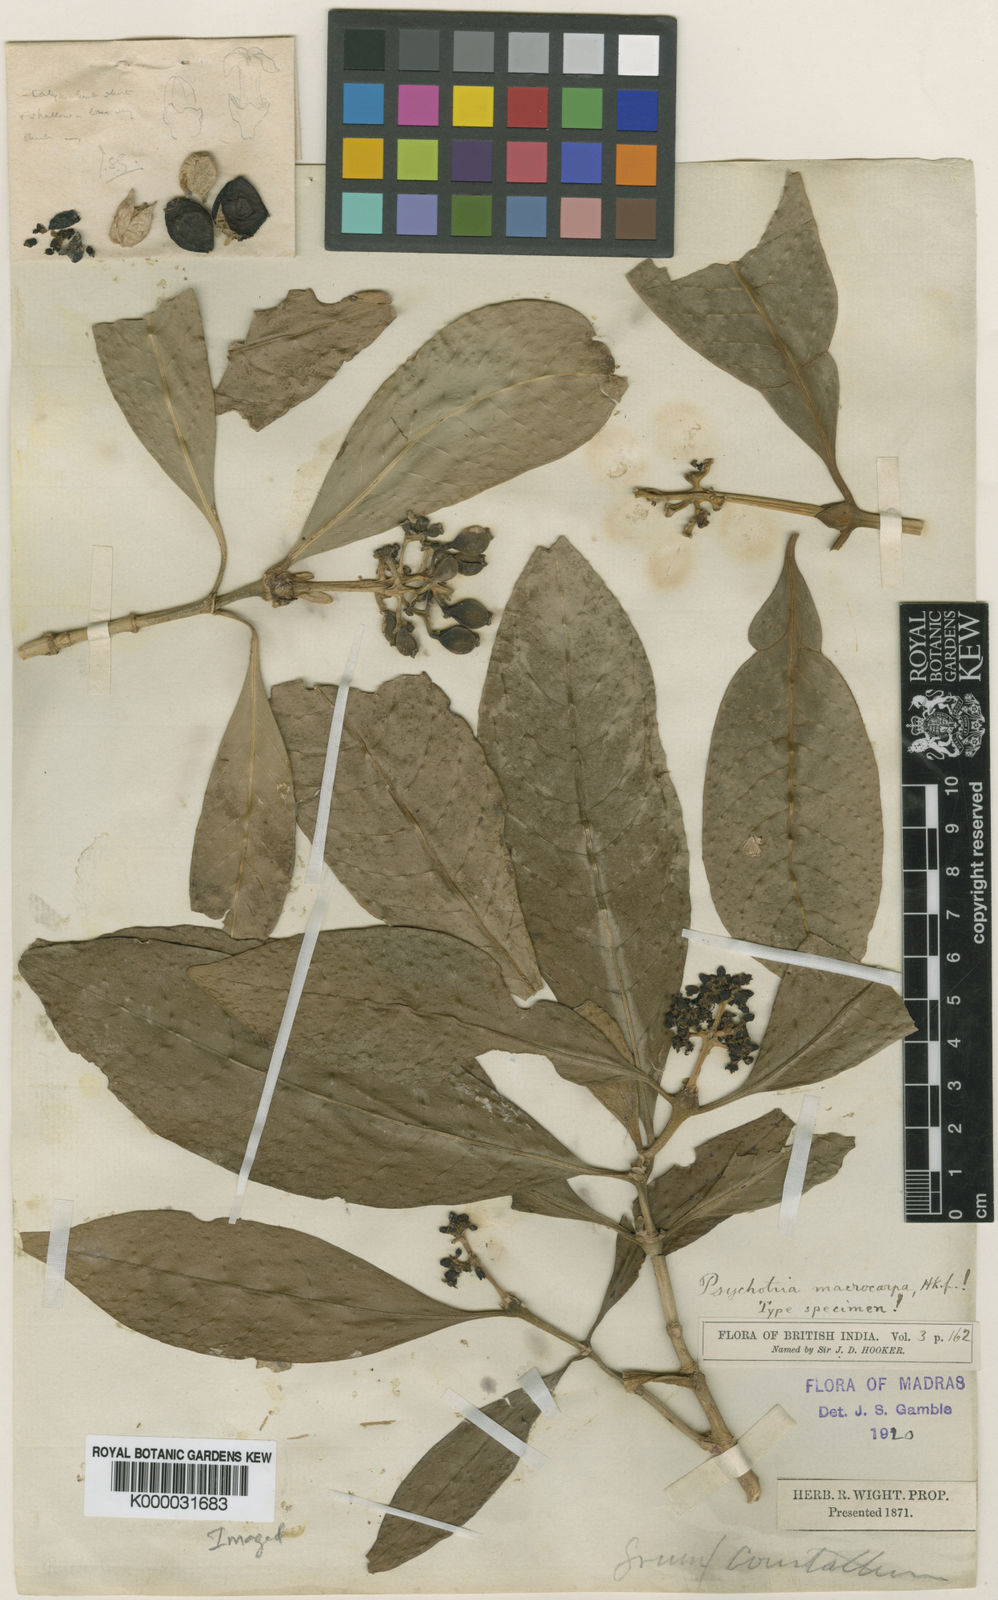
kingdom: Plantae
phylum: Tracheophyta
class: Magnoliopsida
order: Gentianales
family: Rubiaceae
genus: Psychotria
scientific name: Psychotria macrocarpa
